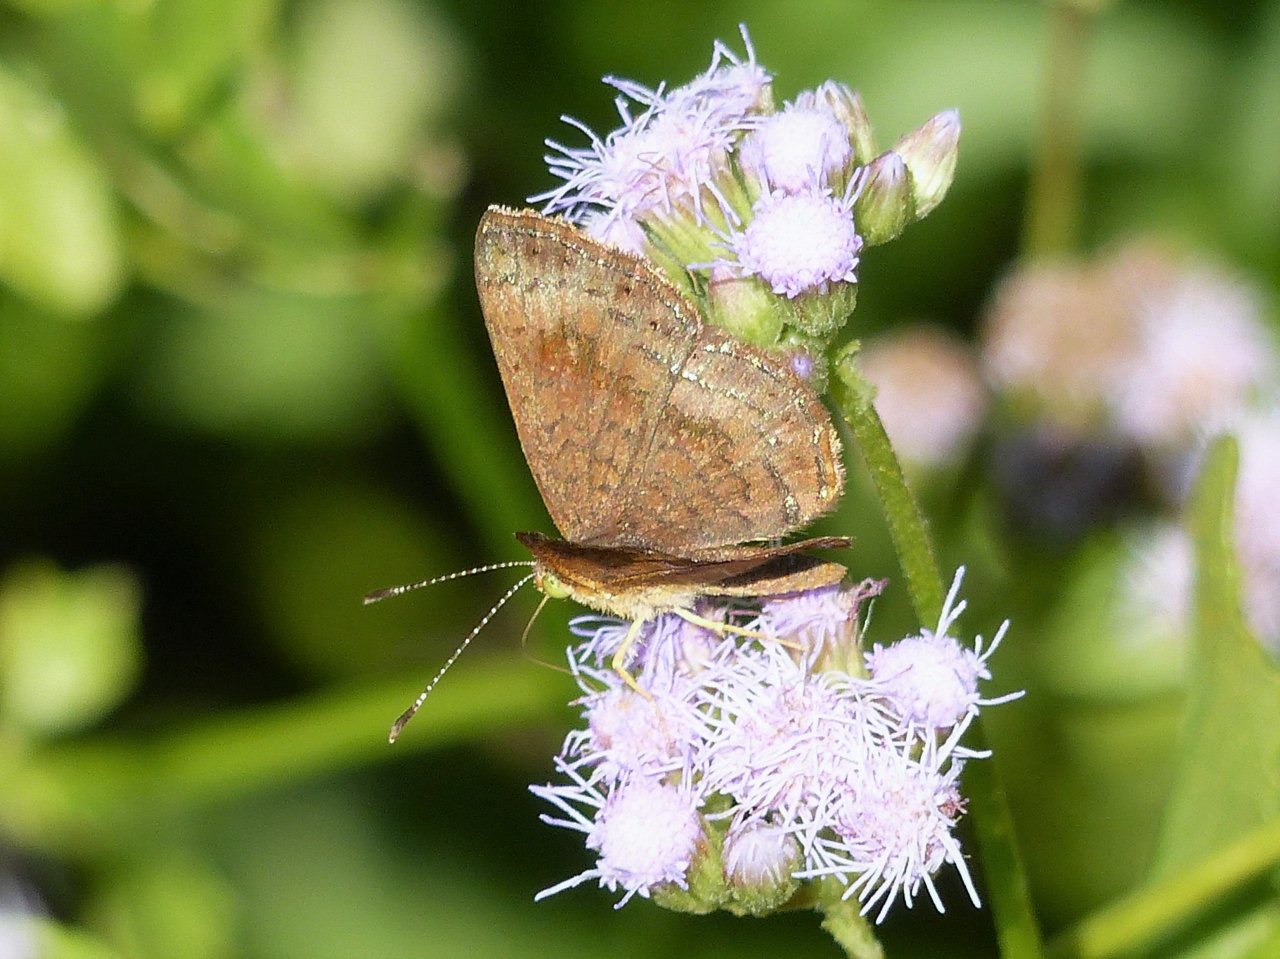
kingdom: Animalia
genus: Calephelis
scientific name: Calephelis nemesis
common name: Fatal Metalmark
